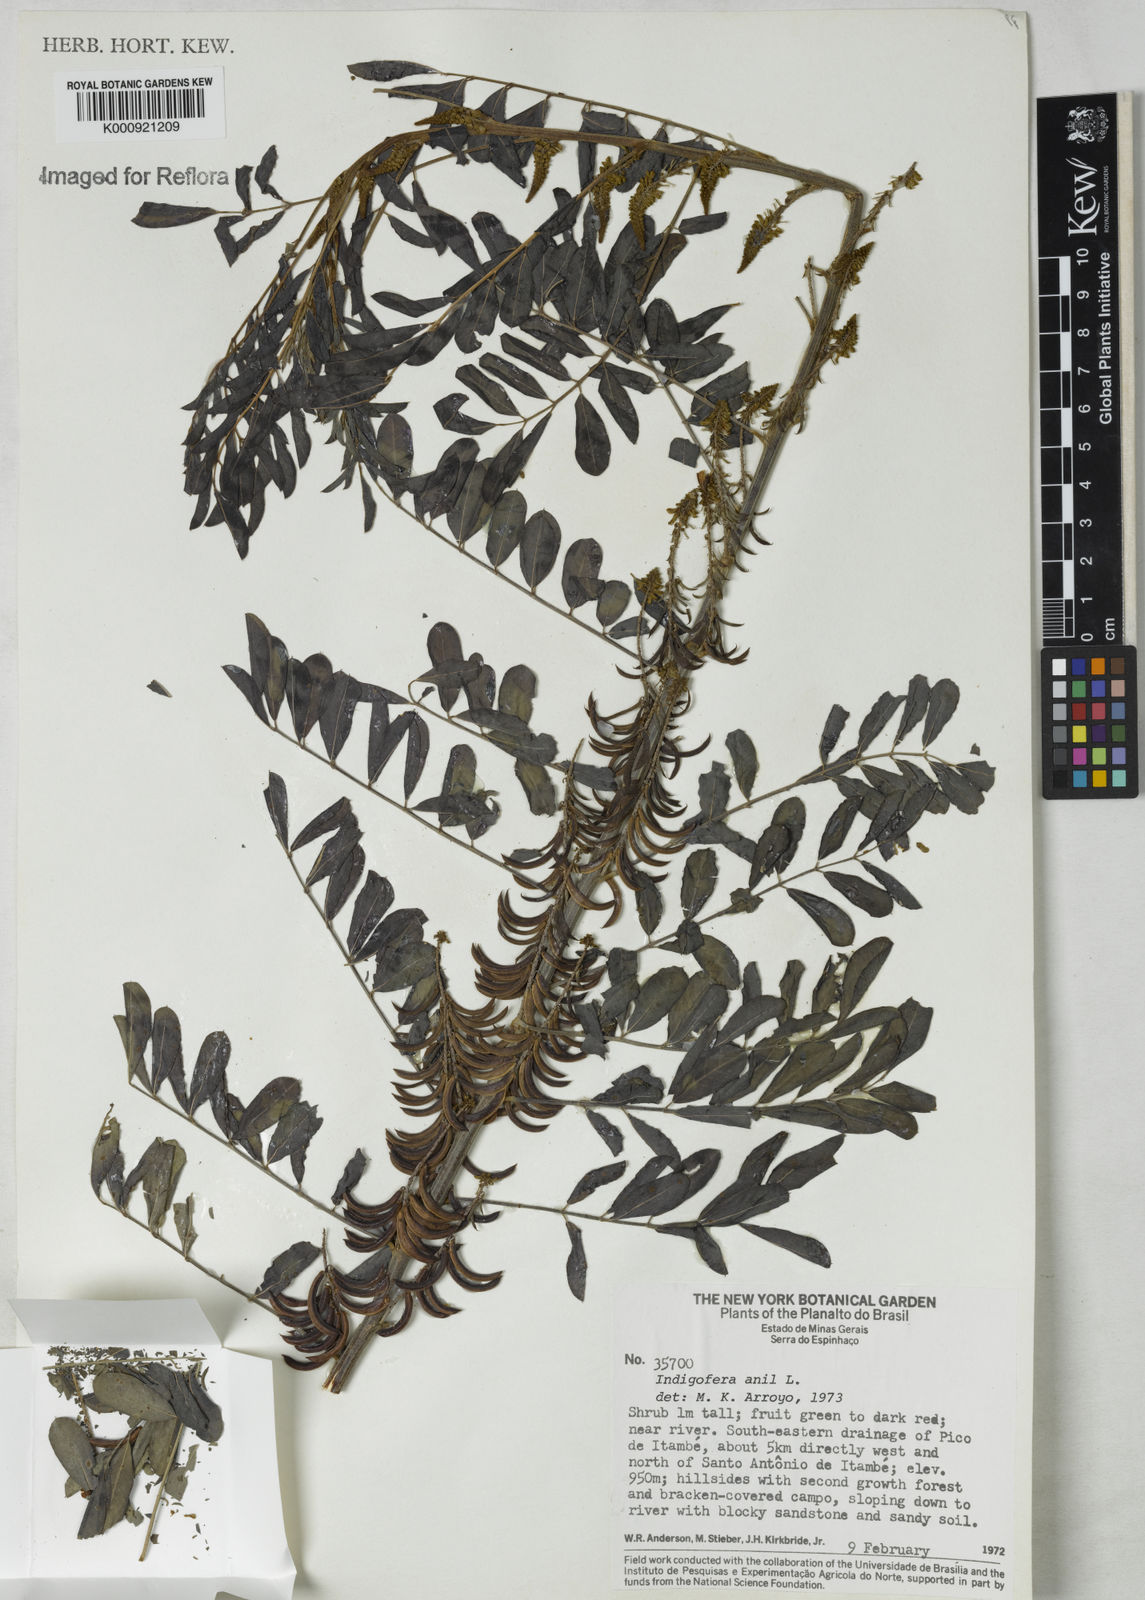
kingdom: Plantae
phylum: Tracheophyta
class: Magnoliopsida
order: Fabales
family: Fabaceae
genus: Indigofera
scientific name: Indigofera suffruticosa
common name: Anil de pasto
